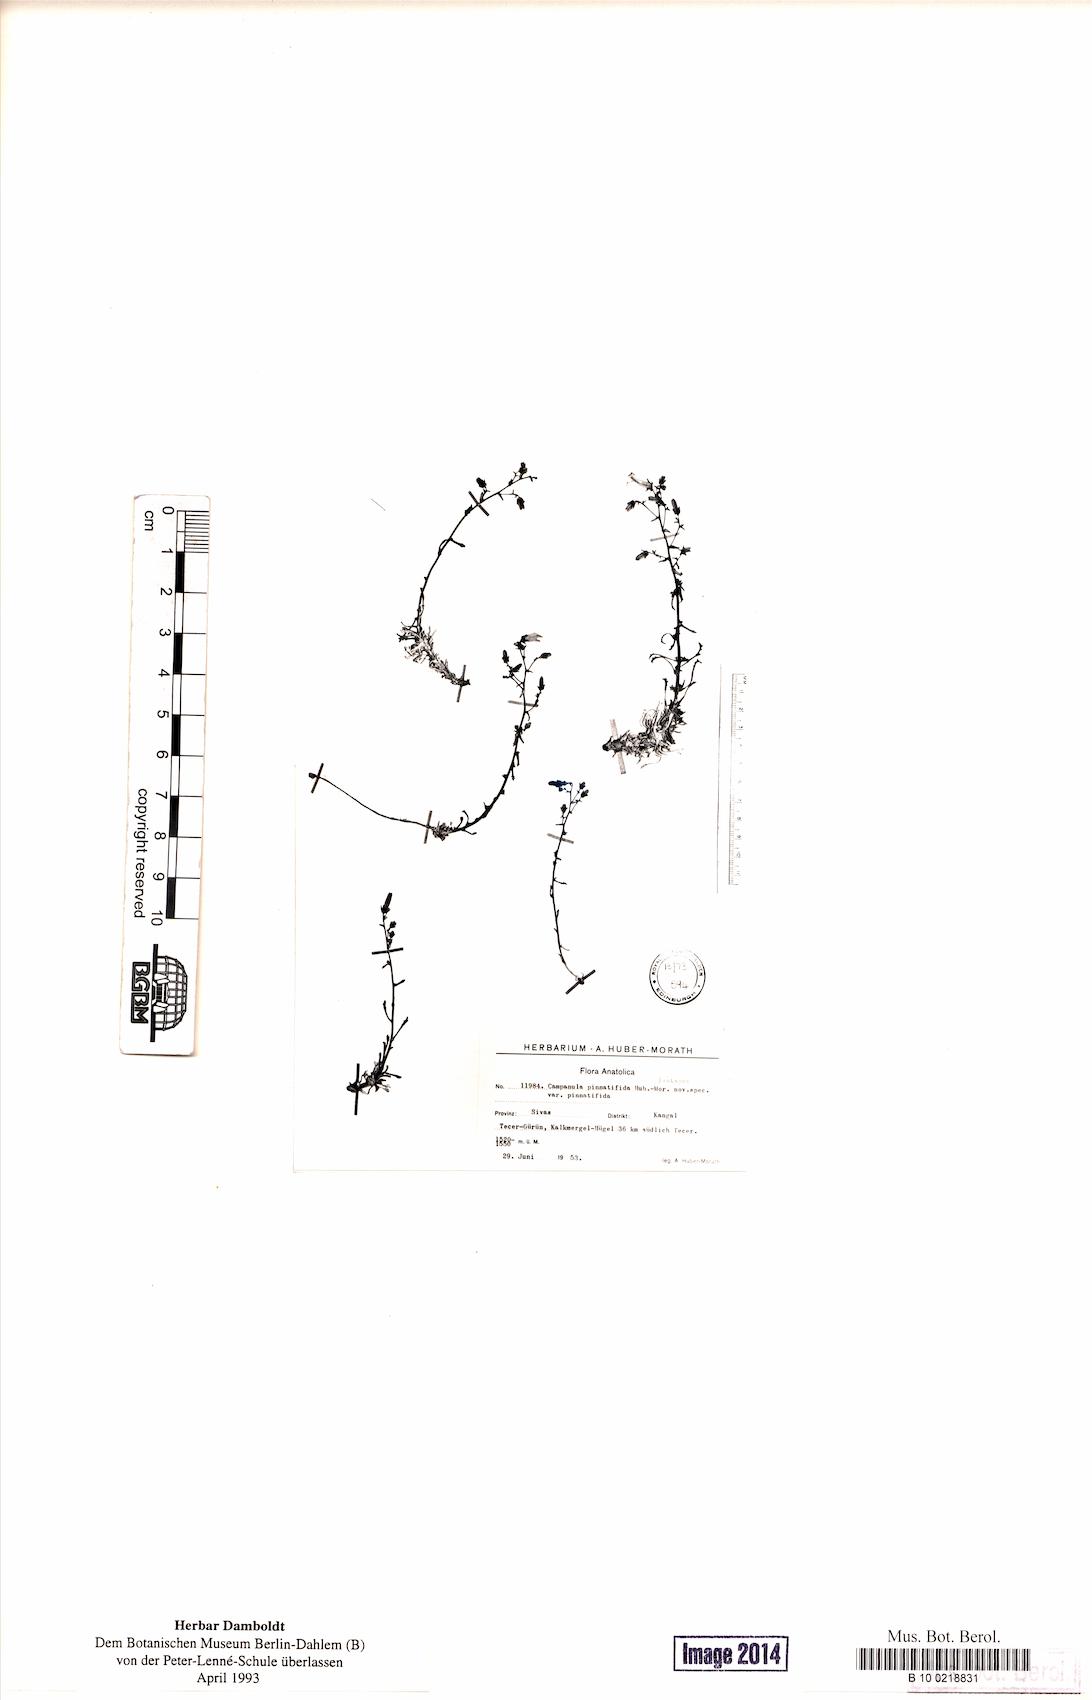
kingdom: Plantae
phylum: Tracheophyta
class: Magnoliopsida
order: Asterales
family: Campanulaceae
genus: Campanula
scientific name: Campanula pinnatifida
